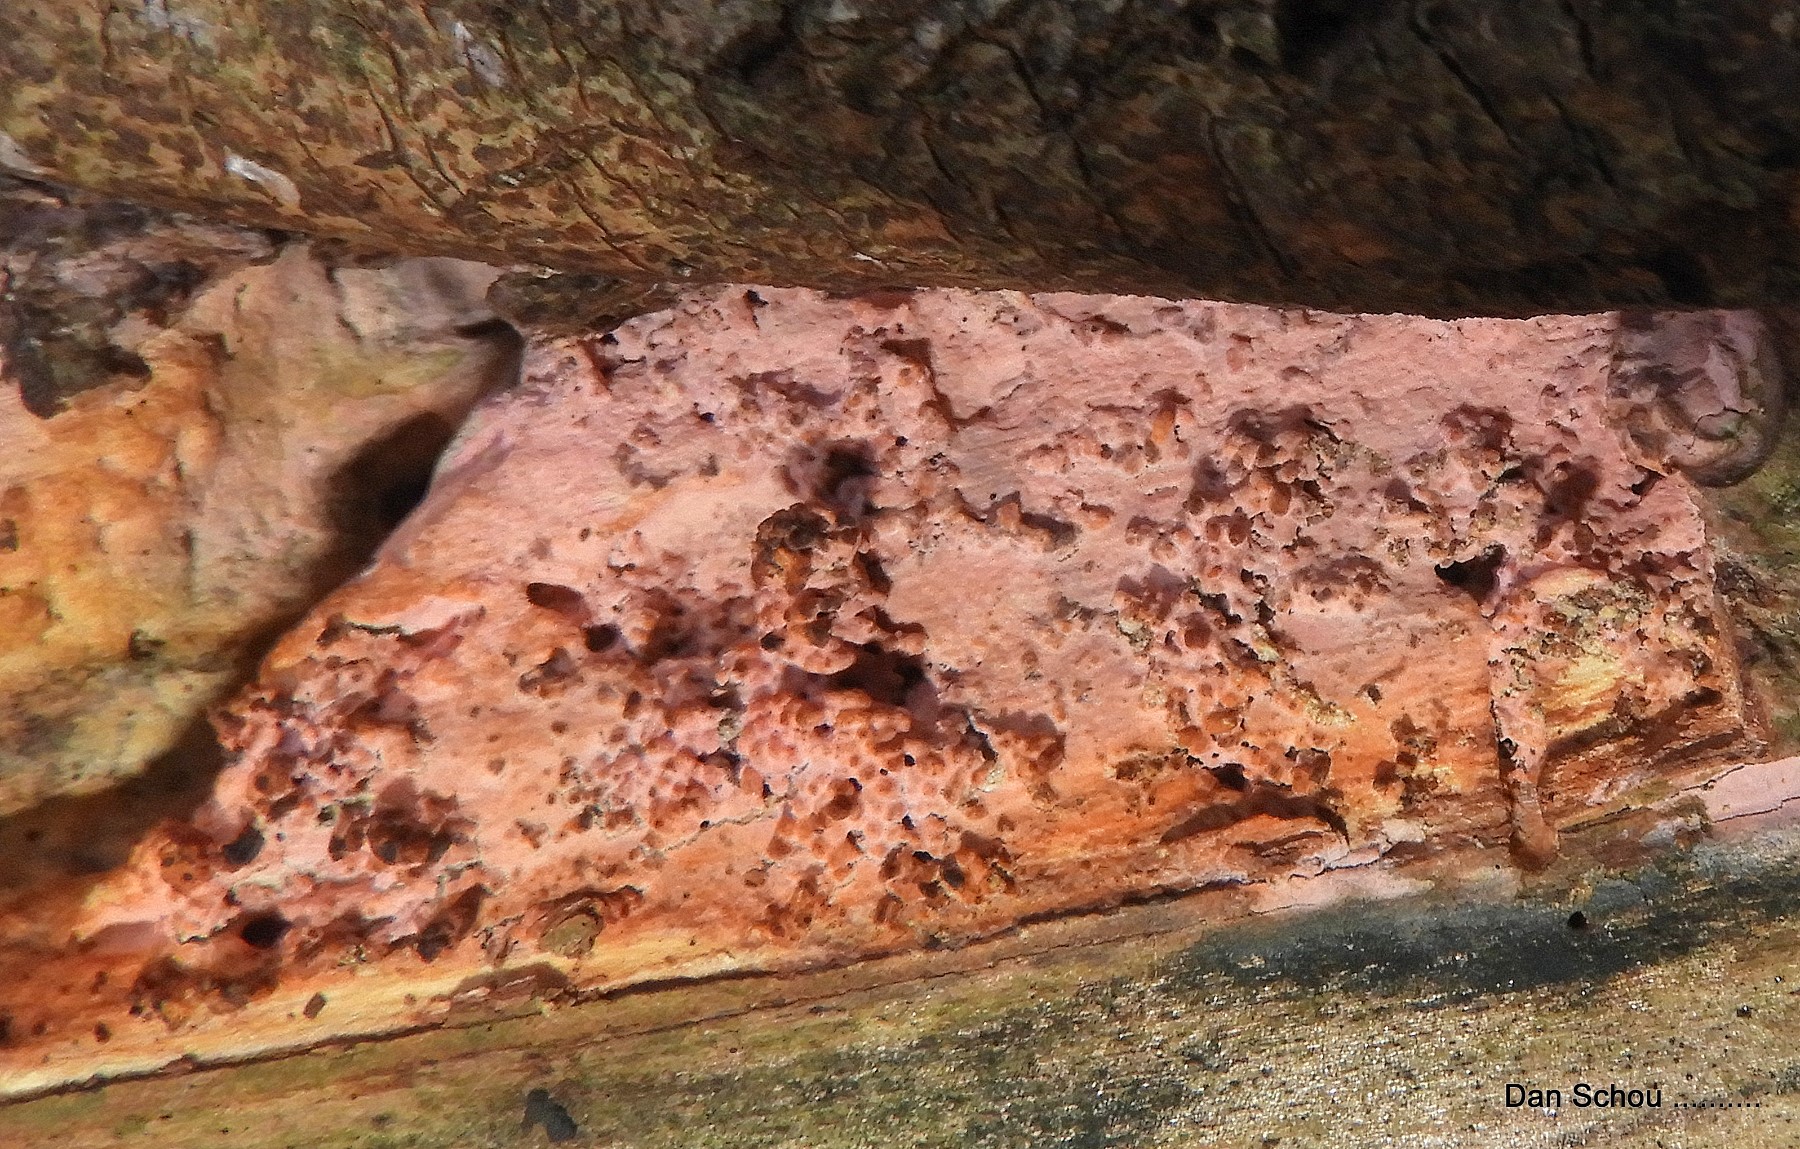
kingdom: Fungi
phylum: Basidiomycota
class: Agaricomycetes
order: Cantharellales
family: Tulasnellaceae
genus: Tulasnella
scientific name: Tulasnella
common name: ballonhinde
